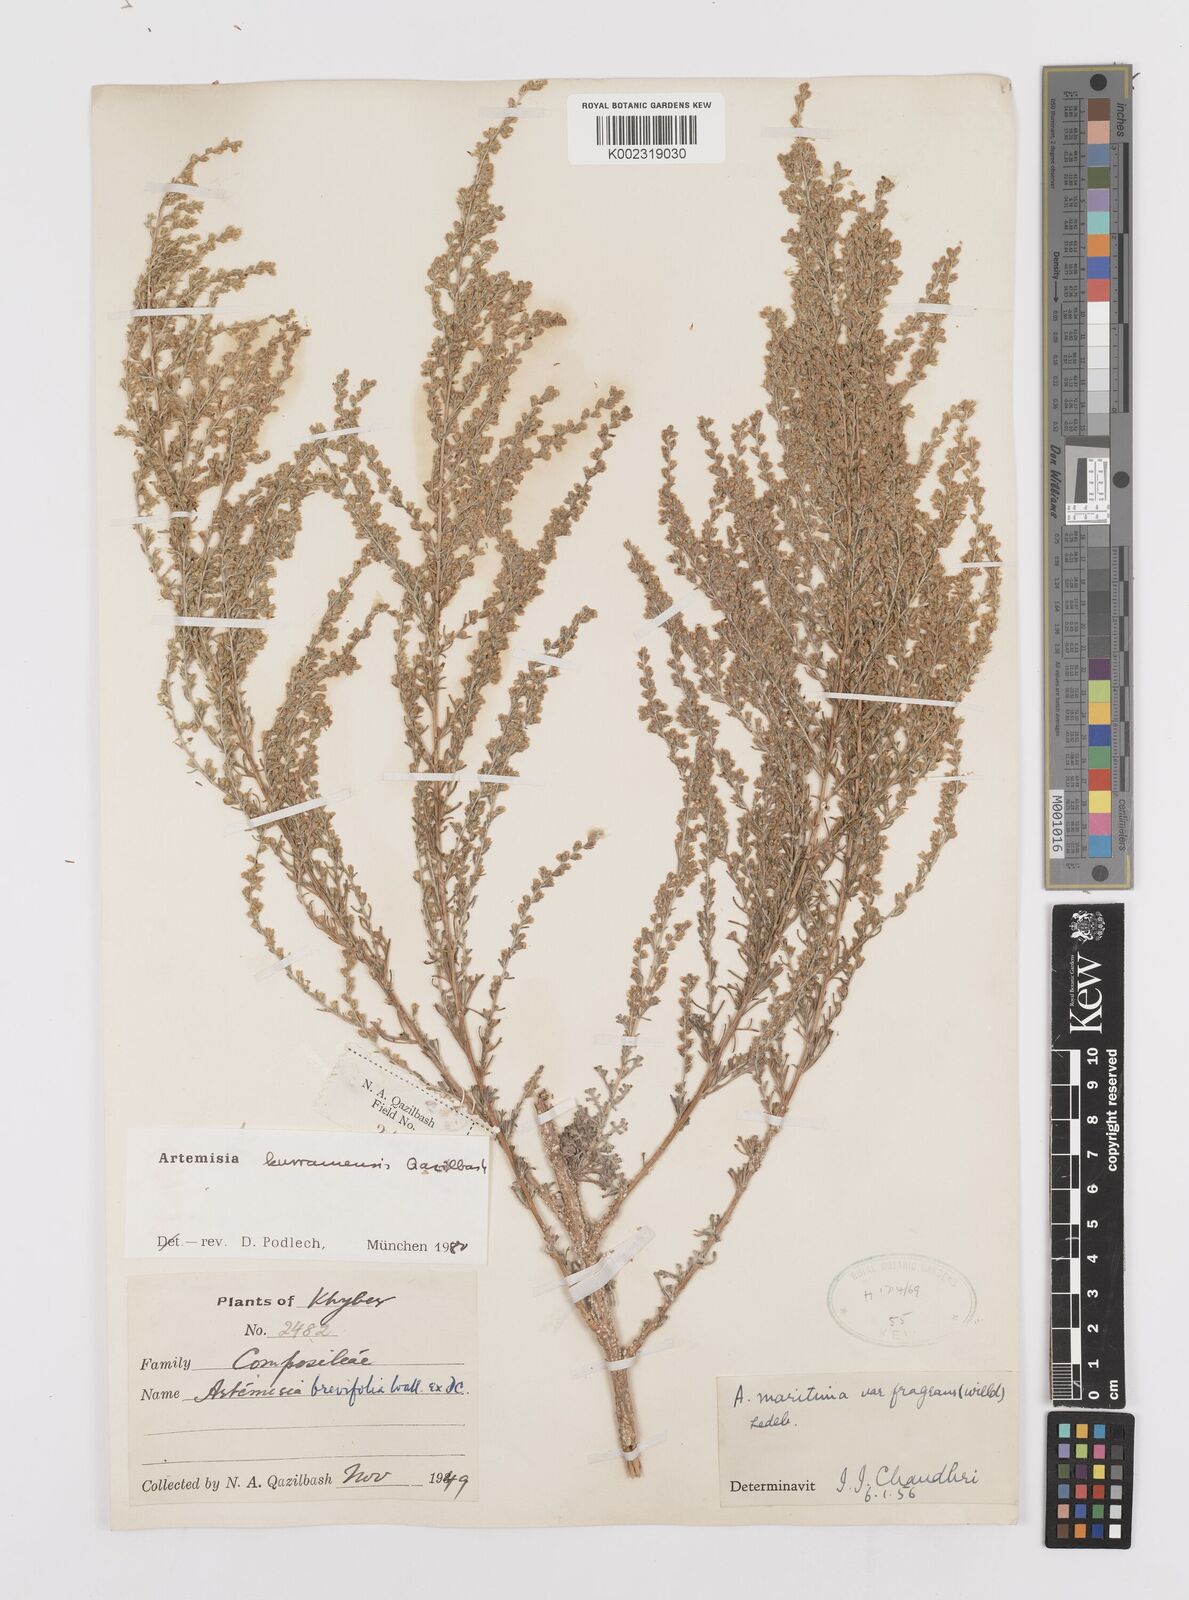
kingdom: Plantae
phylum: Tracheophyta
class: Magnoliopsida
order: Asterales
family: Asteraceae
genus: Artemisia
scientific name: Artemisia kurramensis
